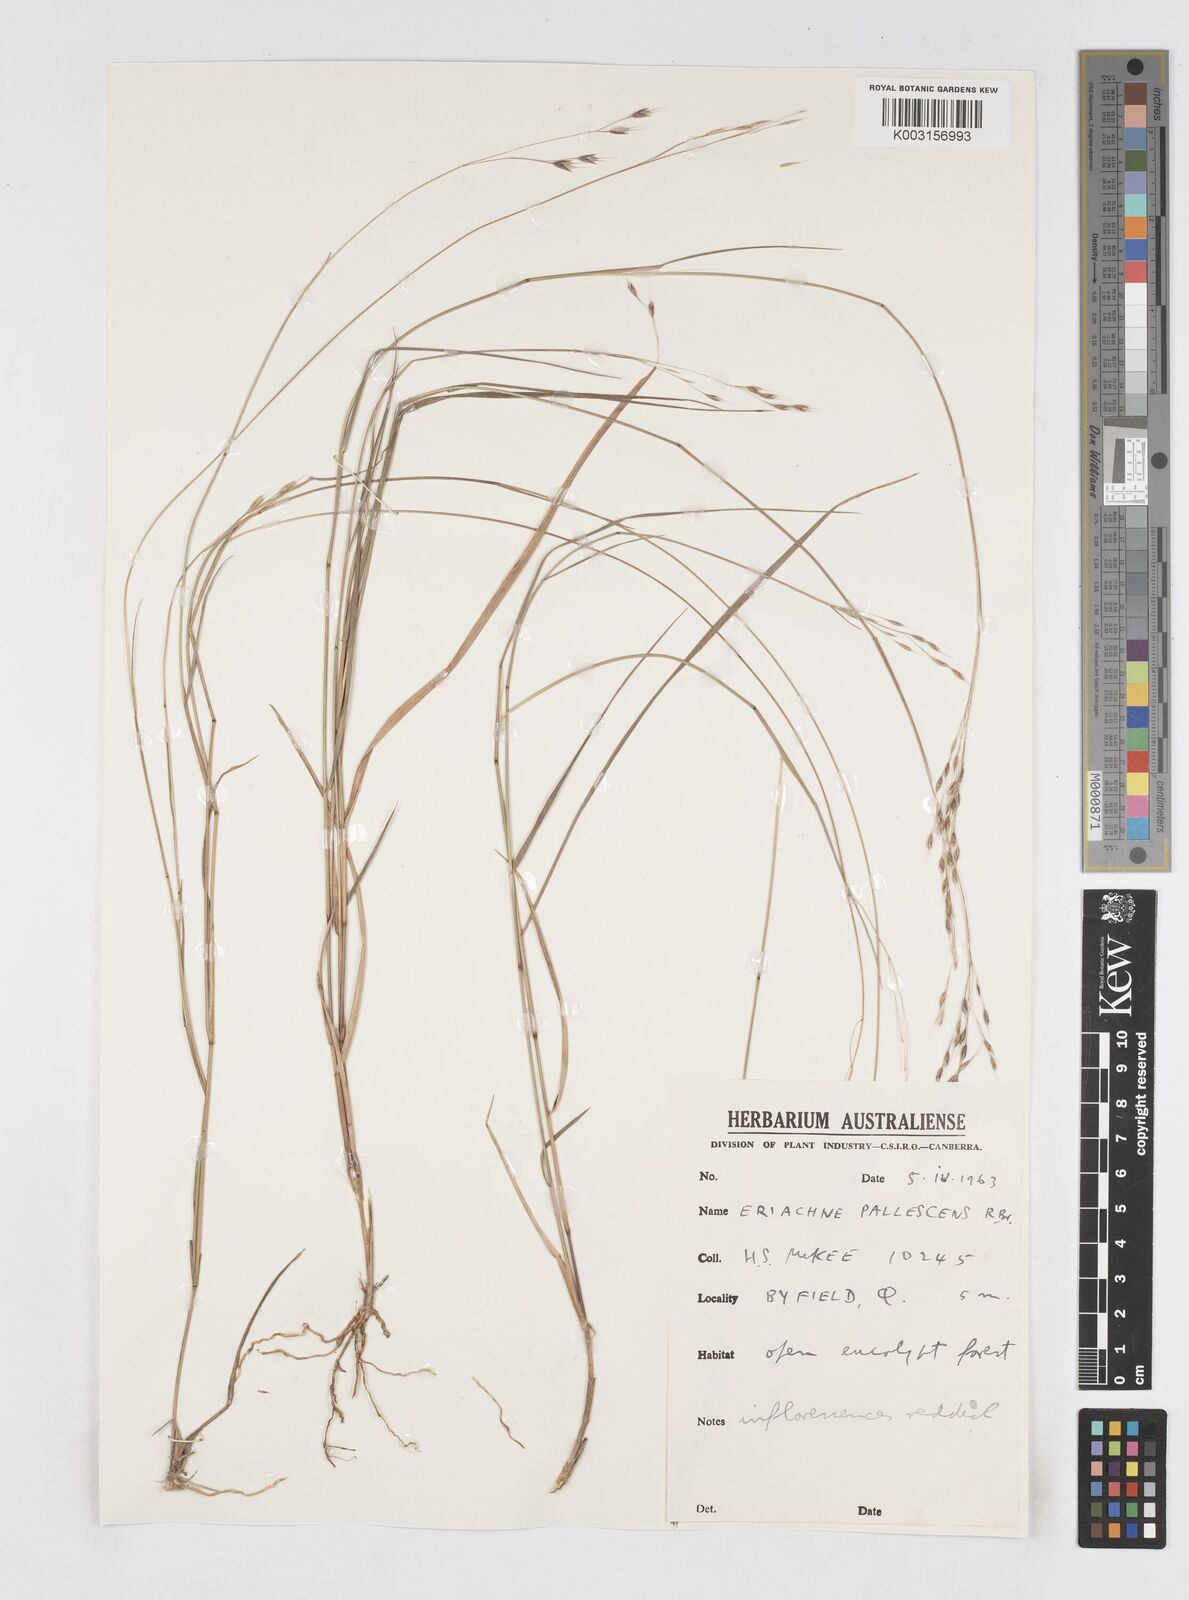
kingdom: Plantae
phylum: Tracheophyta
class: Liliopsida
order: Poales
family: Poaceae
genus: Eriachne
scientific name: Eriachne pallescens
